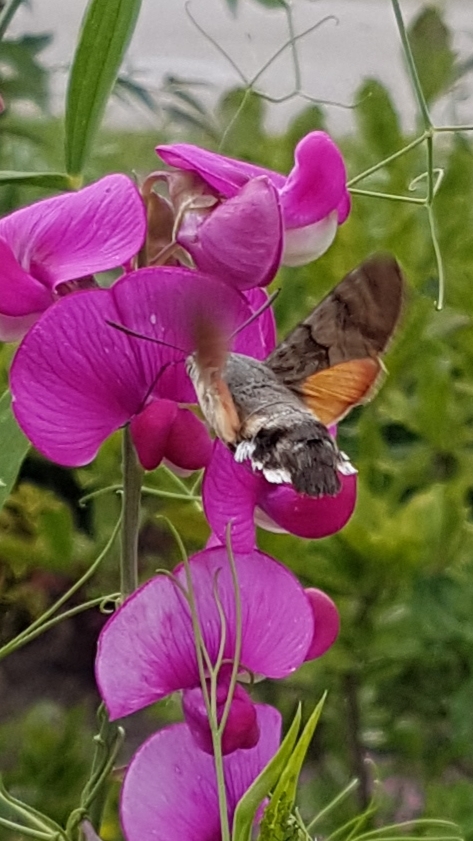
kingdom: Animalia
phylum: Arthropoda
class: Insecta
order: Lepidoptera
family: Sphingidae
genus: Macroglossum
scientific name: Macroglossum stellatarum
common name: Duehale
